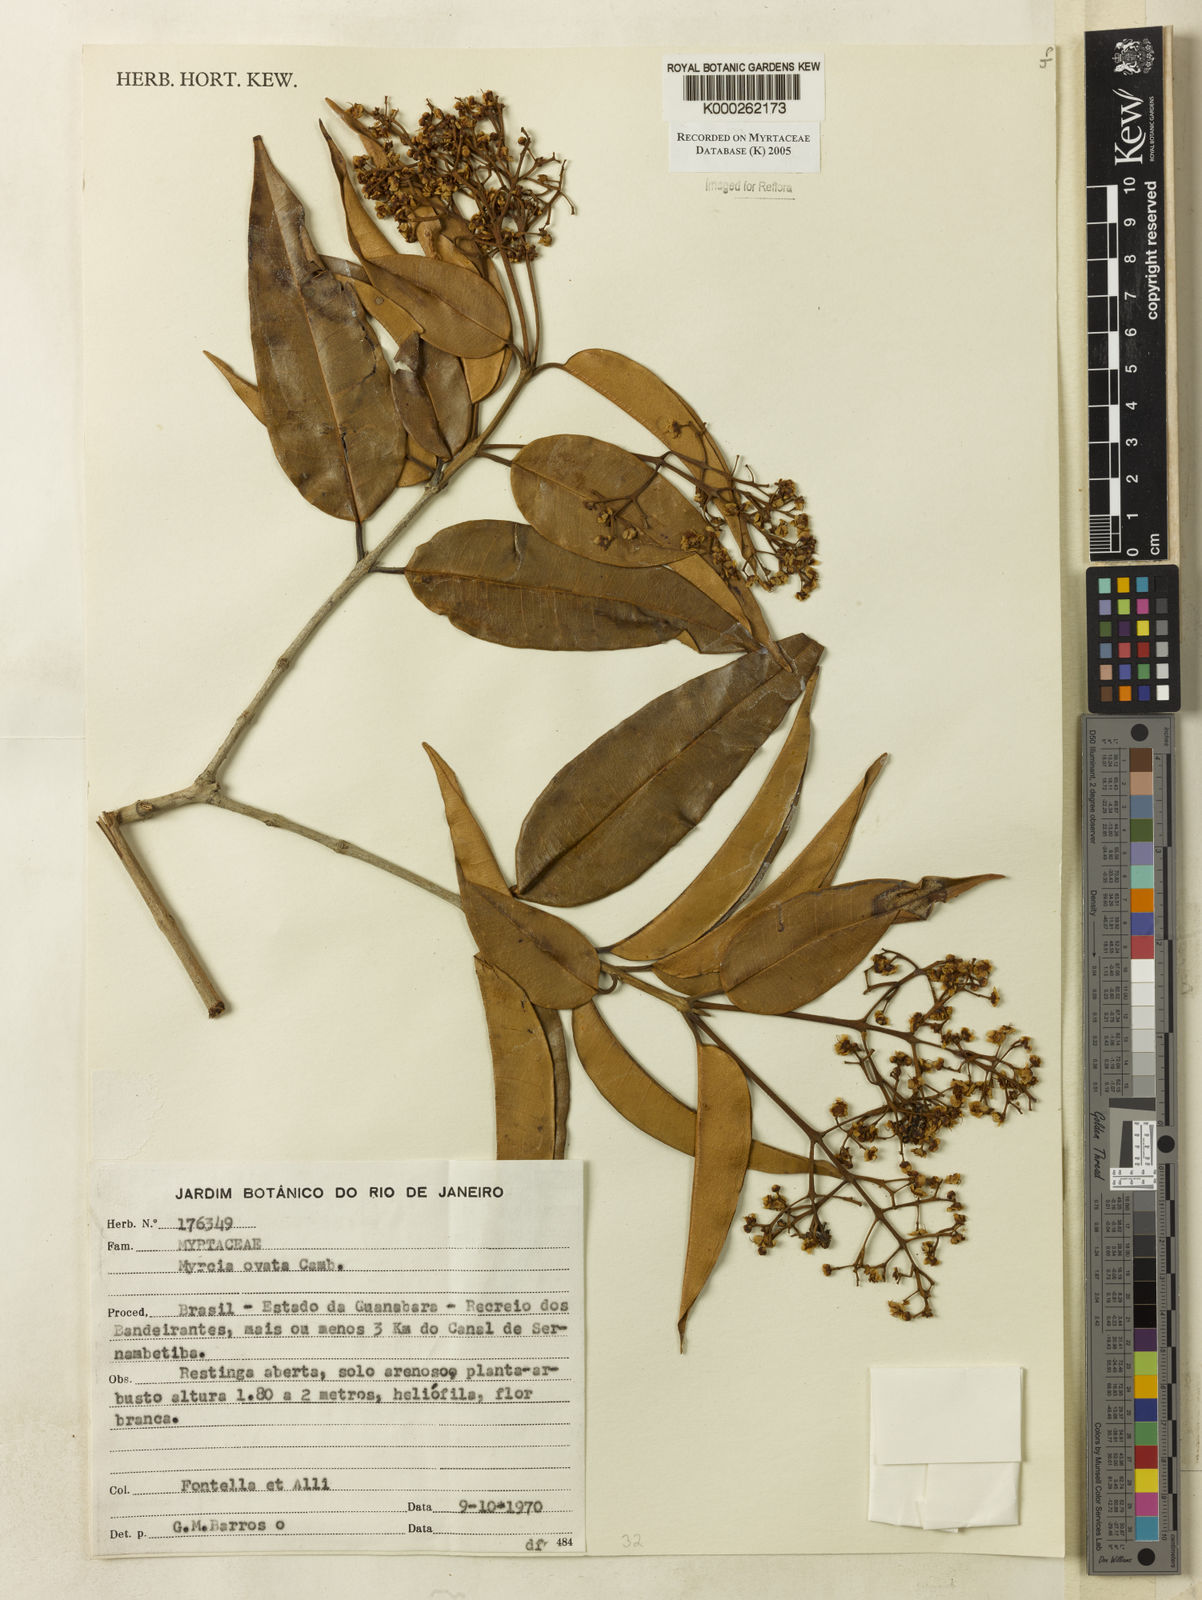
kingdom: Plantae
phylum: Tracheophyta
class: Magnoliopsida
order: Myrtales
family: Myrtaceae
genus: Myrcia
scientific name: Myrcia ovata
